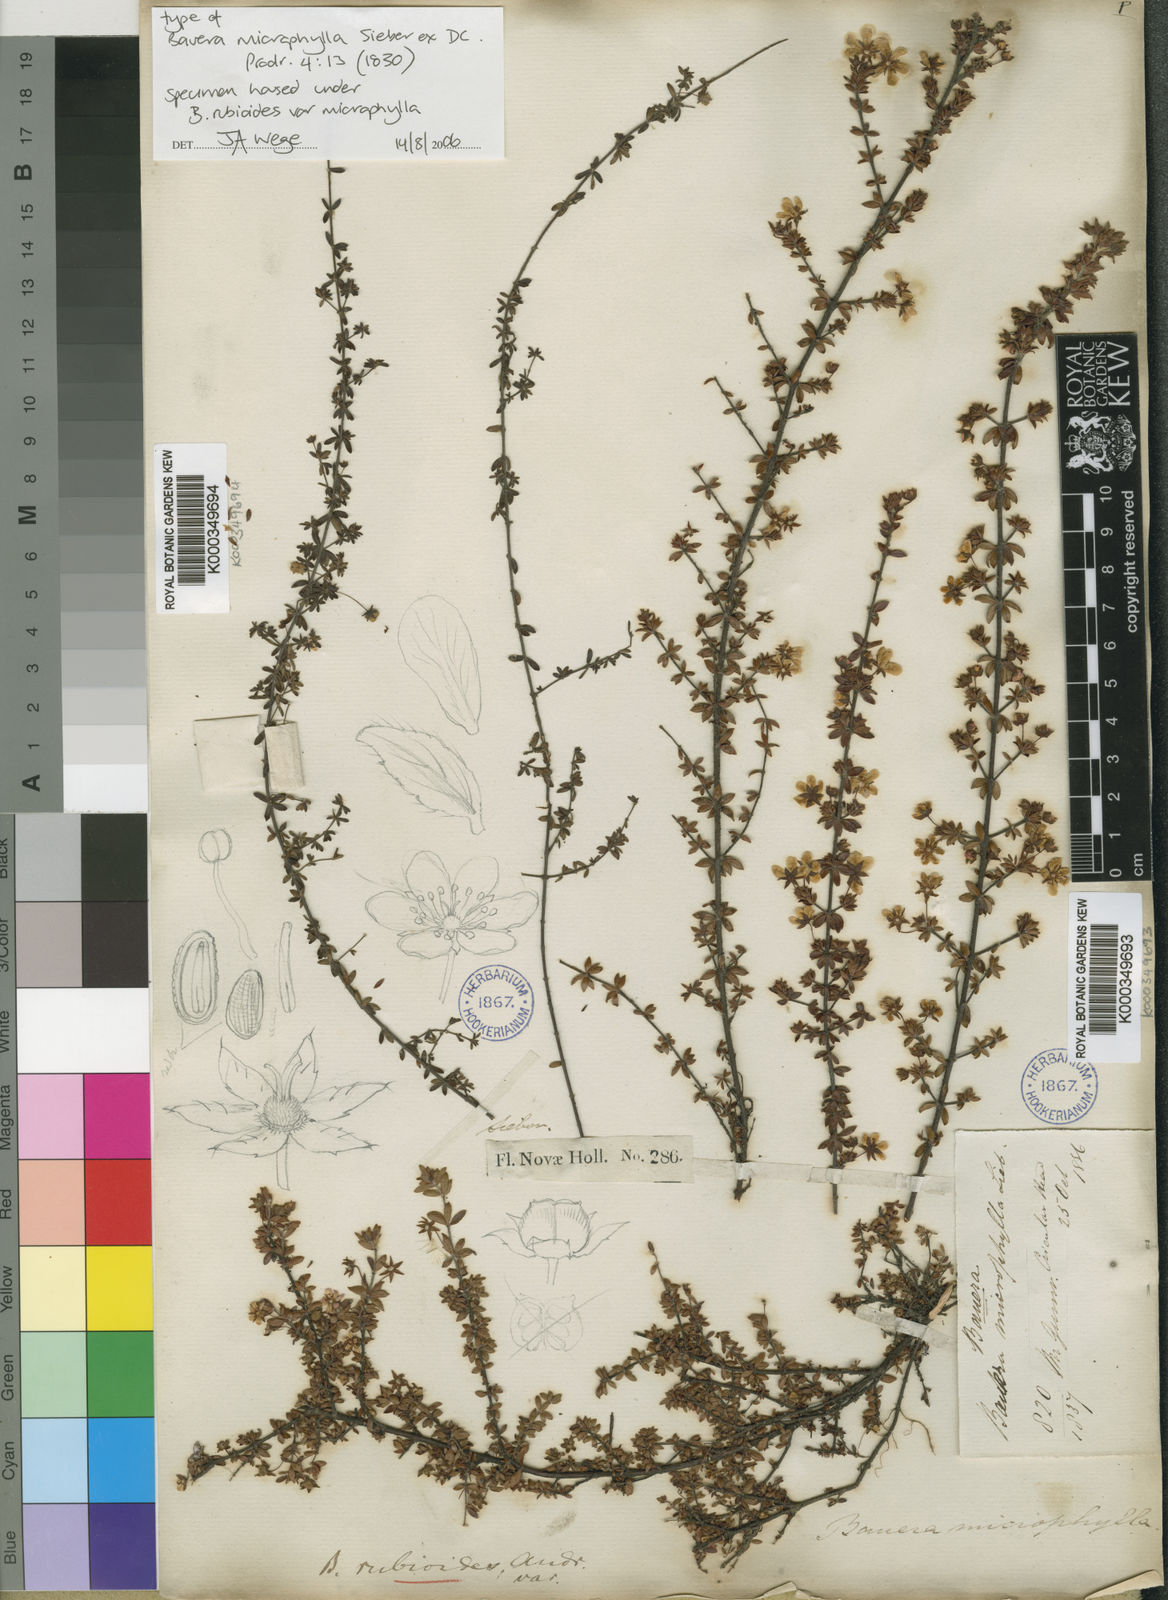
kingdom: Plantae
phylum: Tracheophyta
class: Magnoliopsida
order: Oxalidales
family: Cunoniaceae
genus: Bauera
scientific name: Bauera rubioides
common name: River-rose
